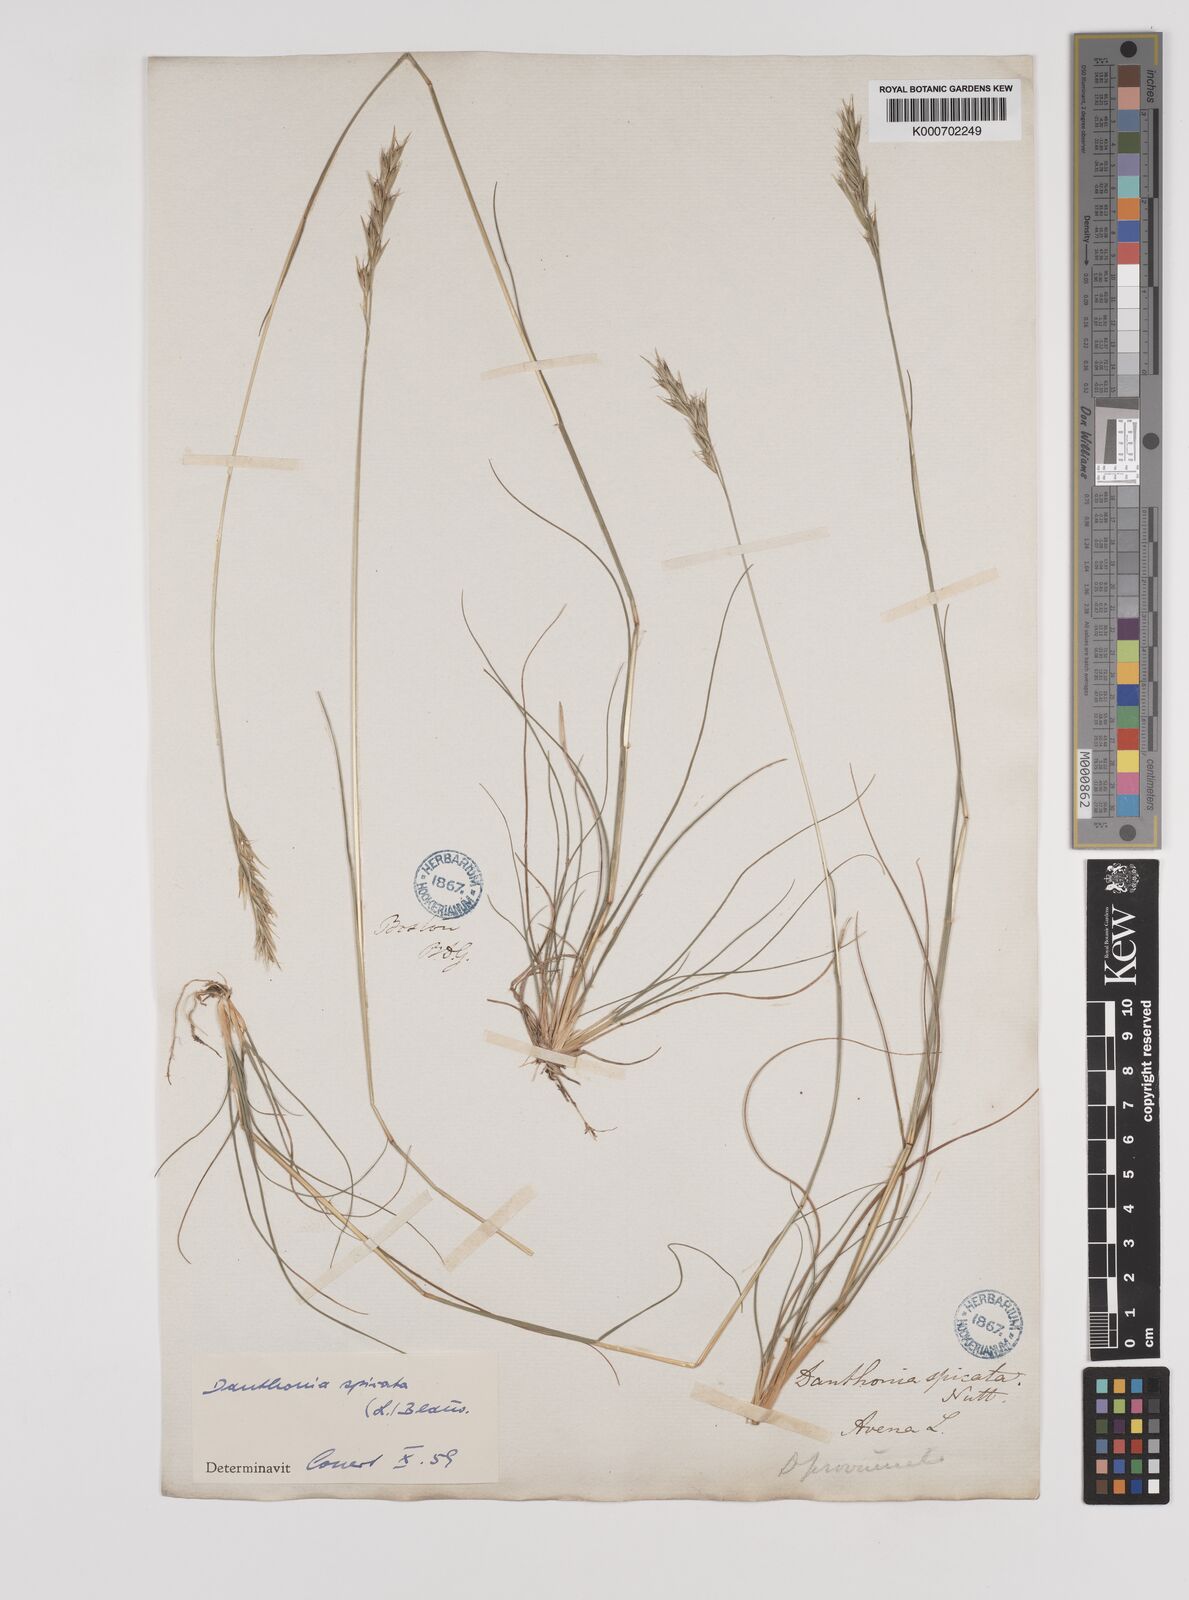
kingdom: Plantae
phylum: Tracheophyta
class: Liliopsida
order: Poales
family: Poaceae
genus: Danthonia
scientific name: Danthonia spicata
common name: Common wild oatgrass
